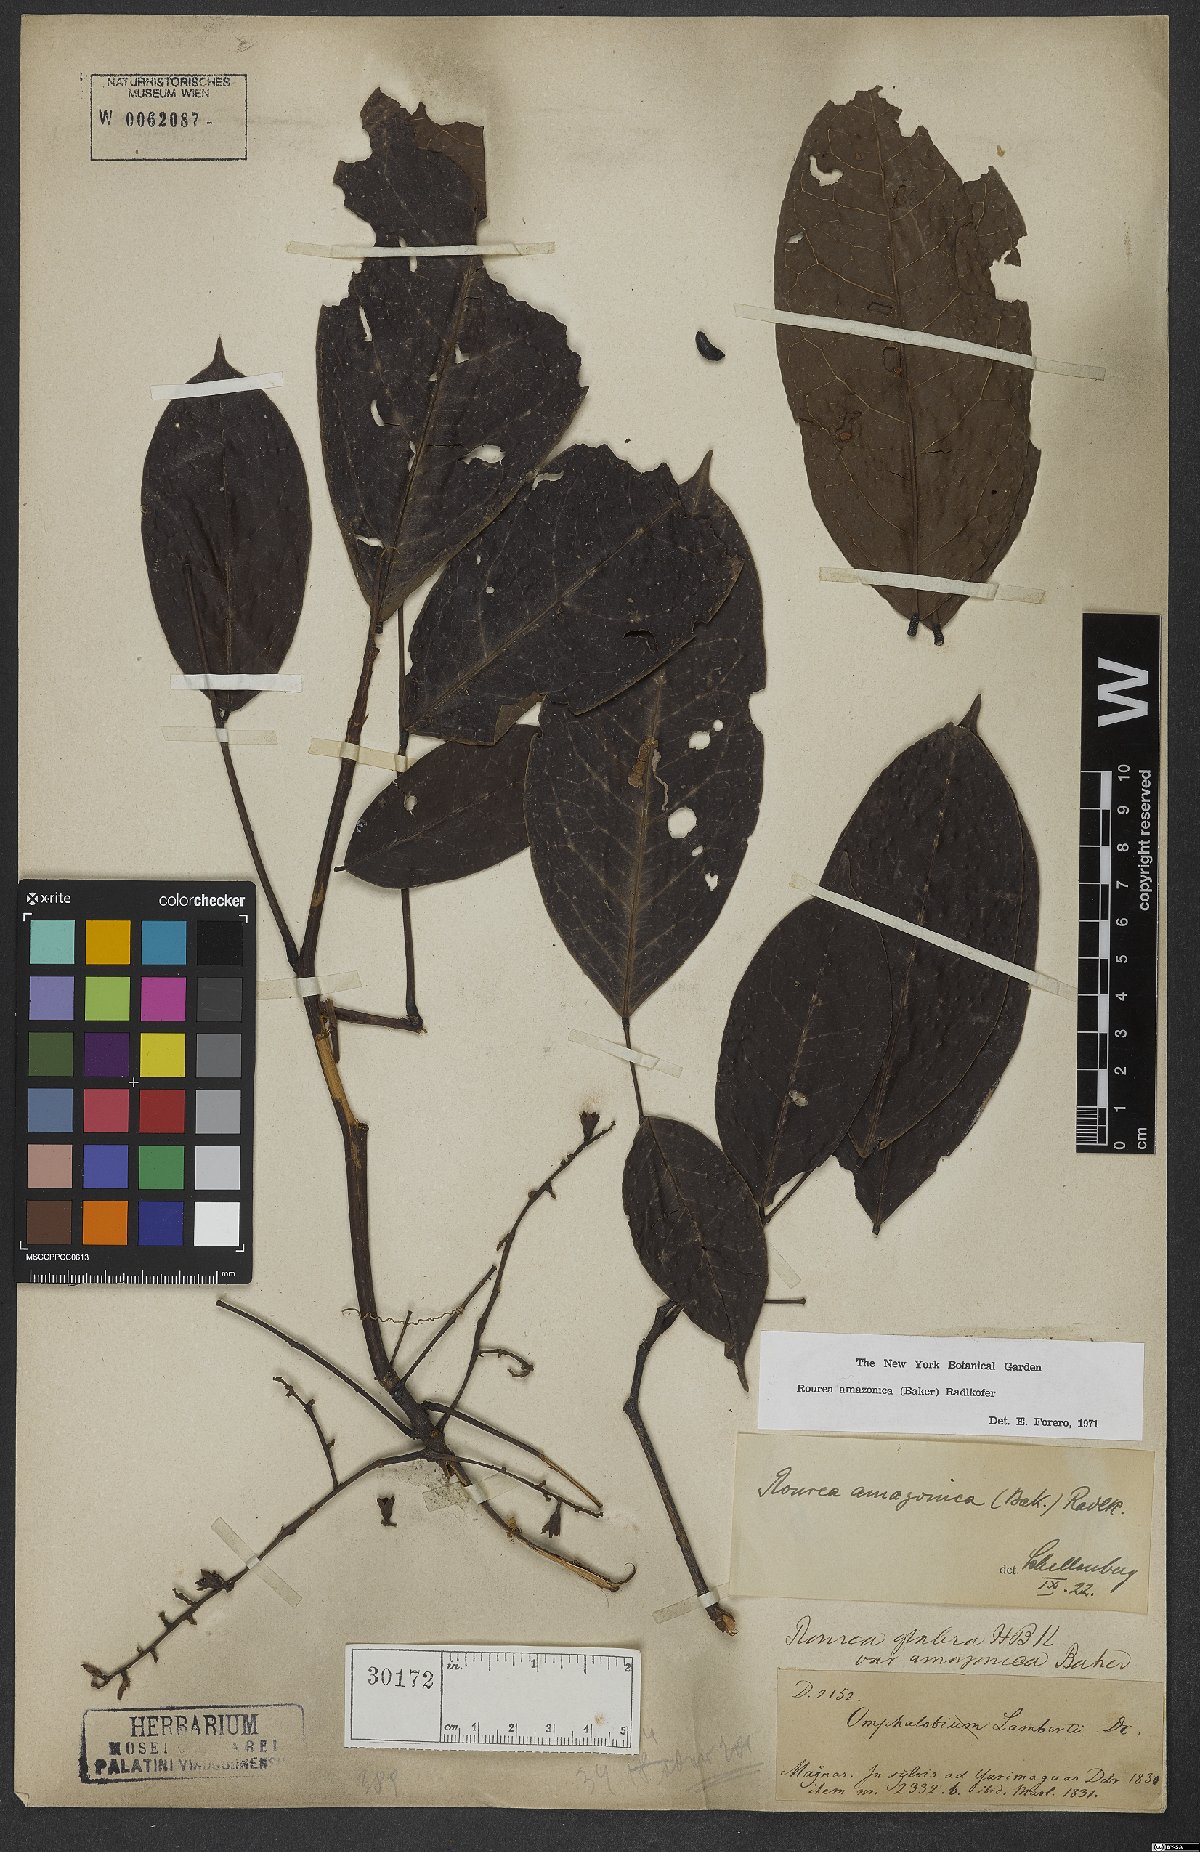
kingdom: Plantae
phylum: Tracheophyta
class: Magnoliopsida
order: Oxalidales
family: Connaraceae
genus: Rourea
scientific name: Rourea amazonica
